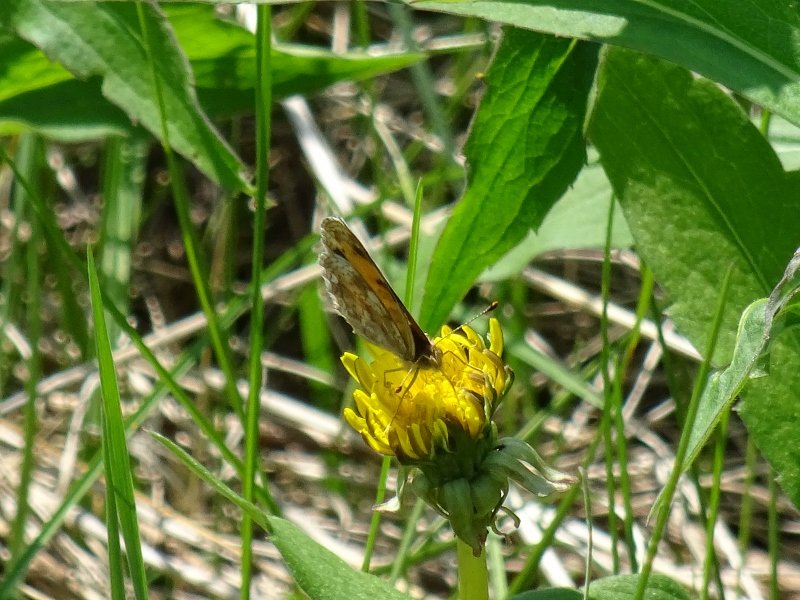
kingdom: Animalia
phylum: Arthropoda
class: Insecta
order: Lepidoptera
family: Nymphalidae
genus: Phyciodes
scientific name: Phyciodes tharos
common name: Northern Crescent
